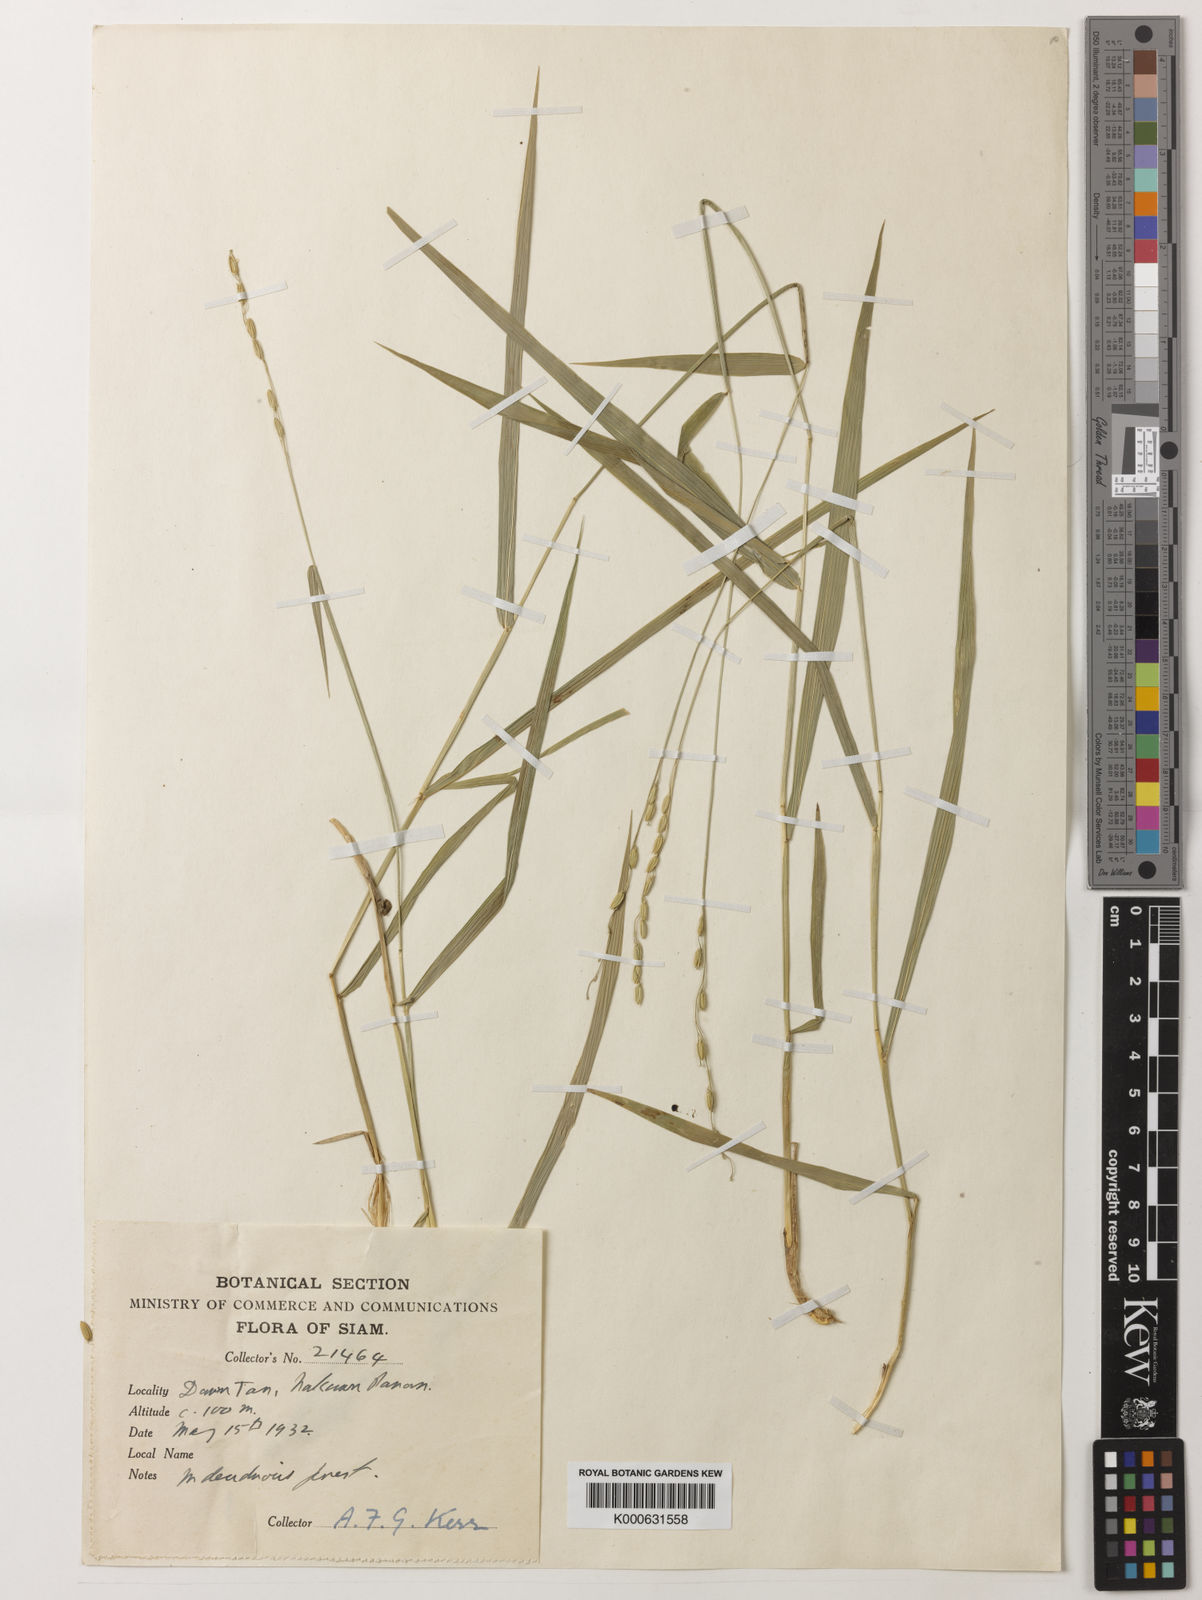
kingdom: Plantae
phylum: Tracheophyta
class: Liliopsida
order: Poales
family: Poaceae
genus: Oryza
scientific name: Oryza meyeriana
